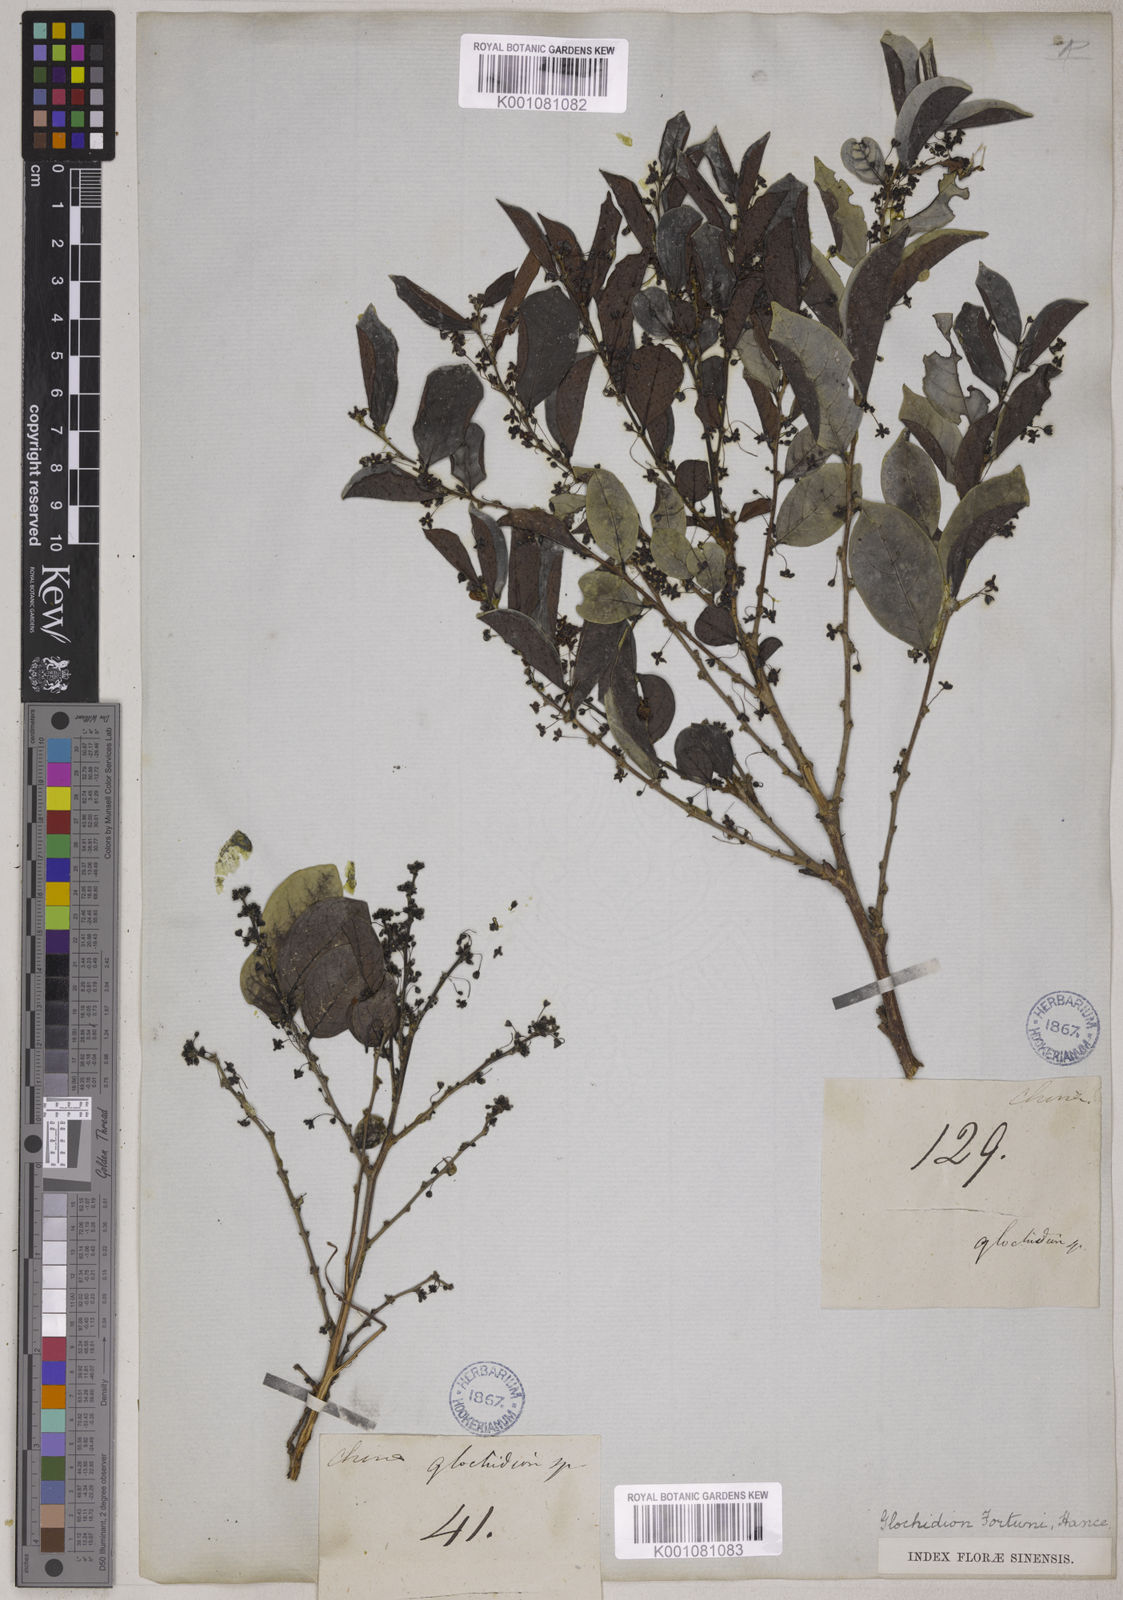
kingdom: Plantae
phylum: Tracheophyta
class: Magnoliopsida
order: Malpighiales
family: Phyllanthaceae
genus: Glochidion
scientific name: Glochidion rubrum
